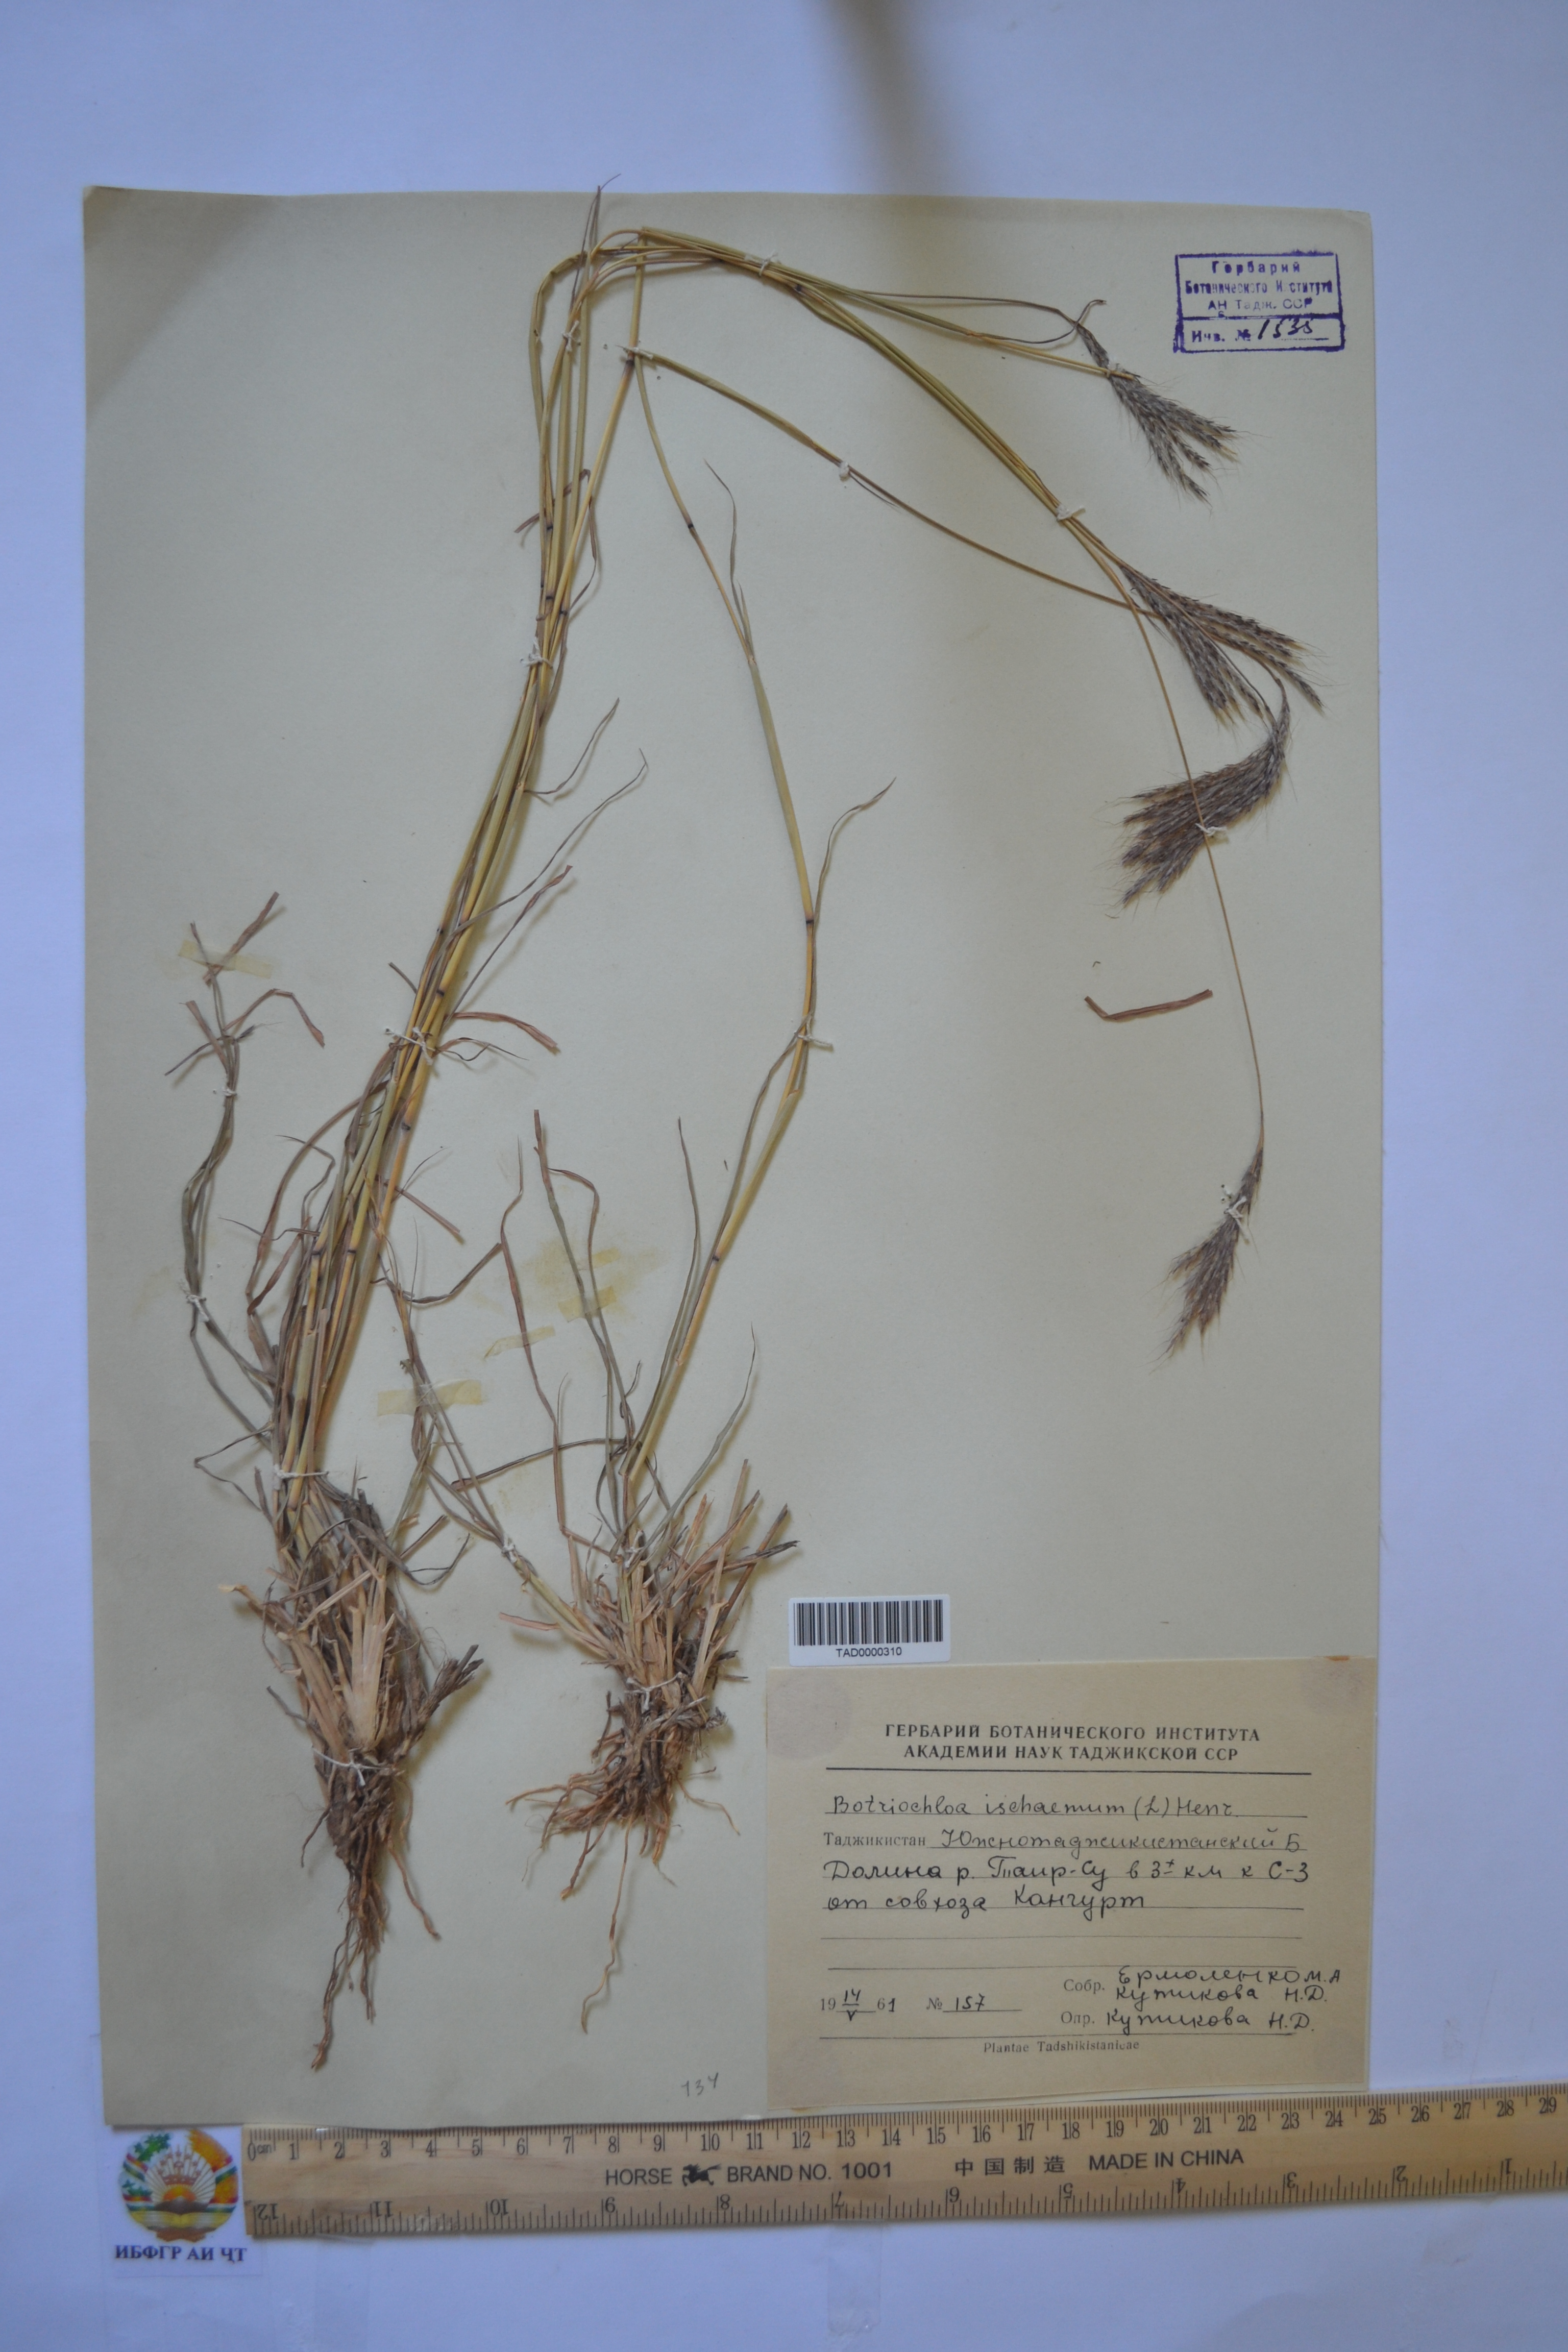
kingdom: Plantae
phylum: Tracheophyta
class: Liliopsida
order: Poales
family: Poaceae
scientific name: Poaceae
